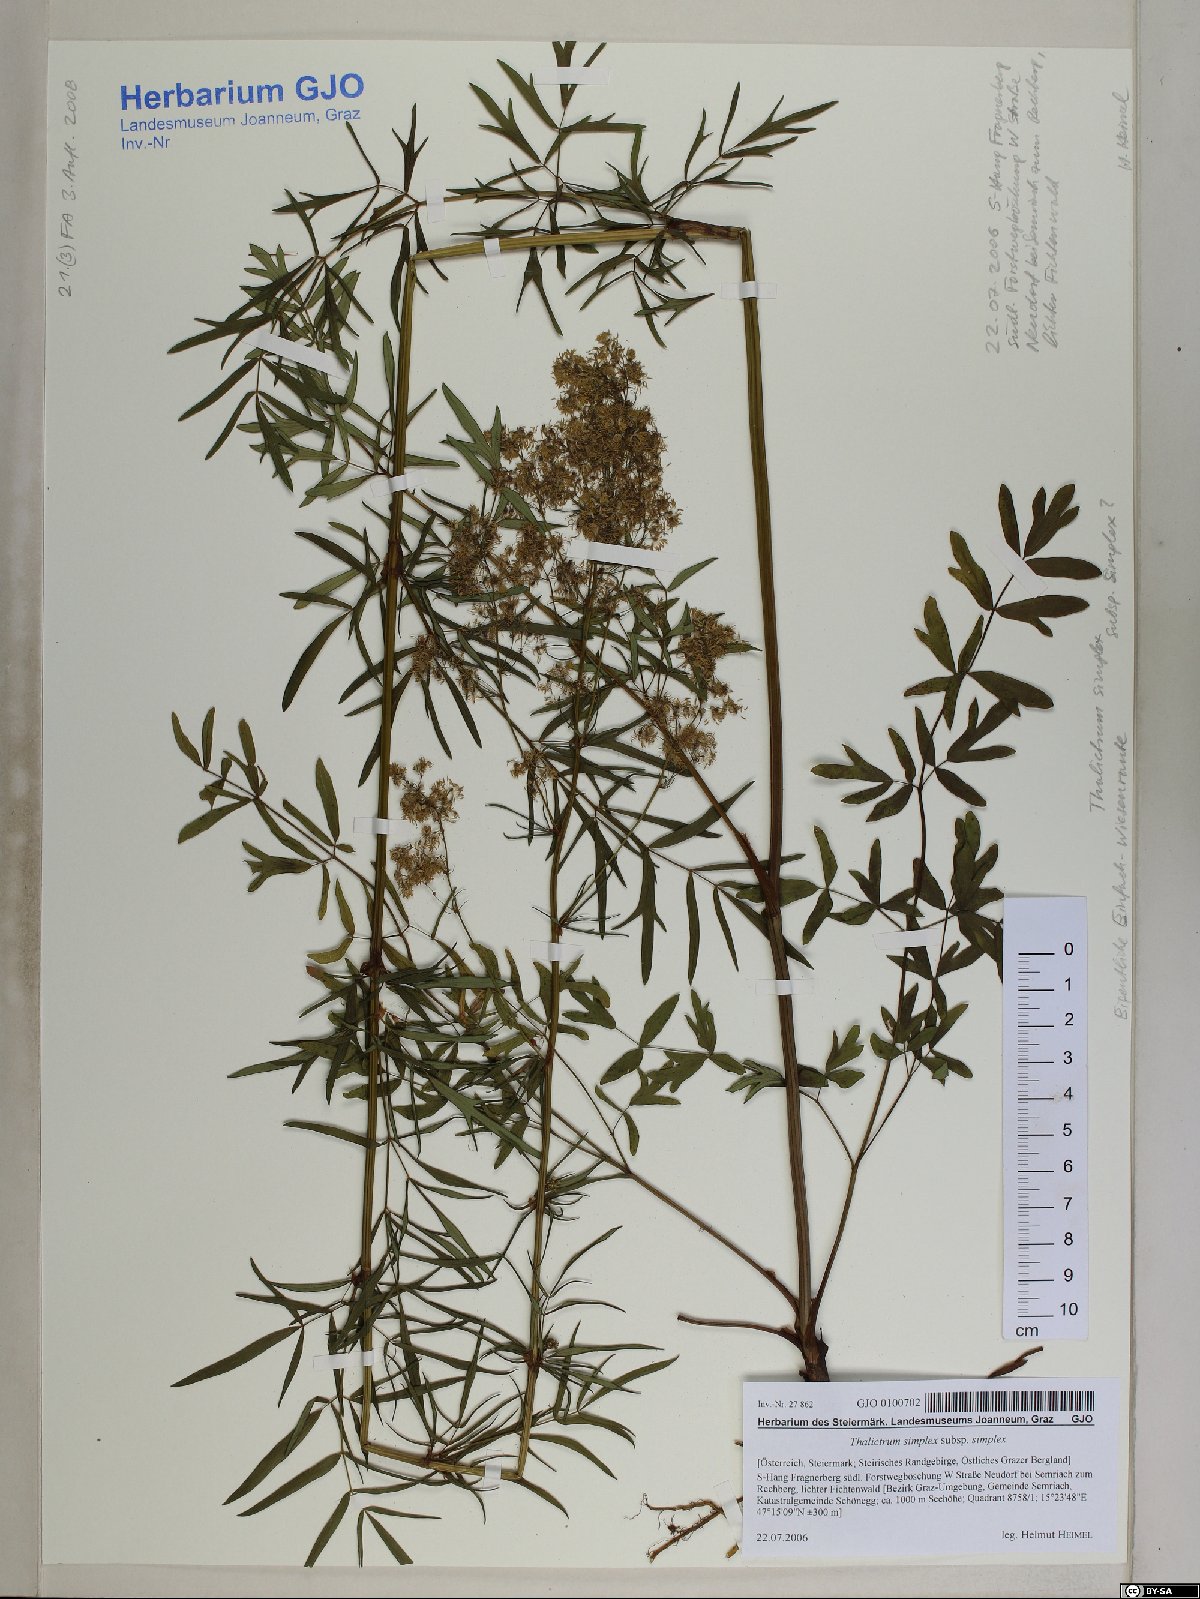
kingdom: Plantae
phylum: Tracheophyta
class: Magnoliopsida
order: Ranunculales
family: Ranunculaceae
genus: Thalictrum
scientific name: Thalictrum simplex
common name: Small meadow-rue
